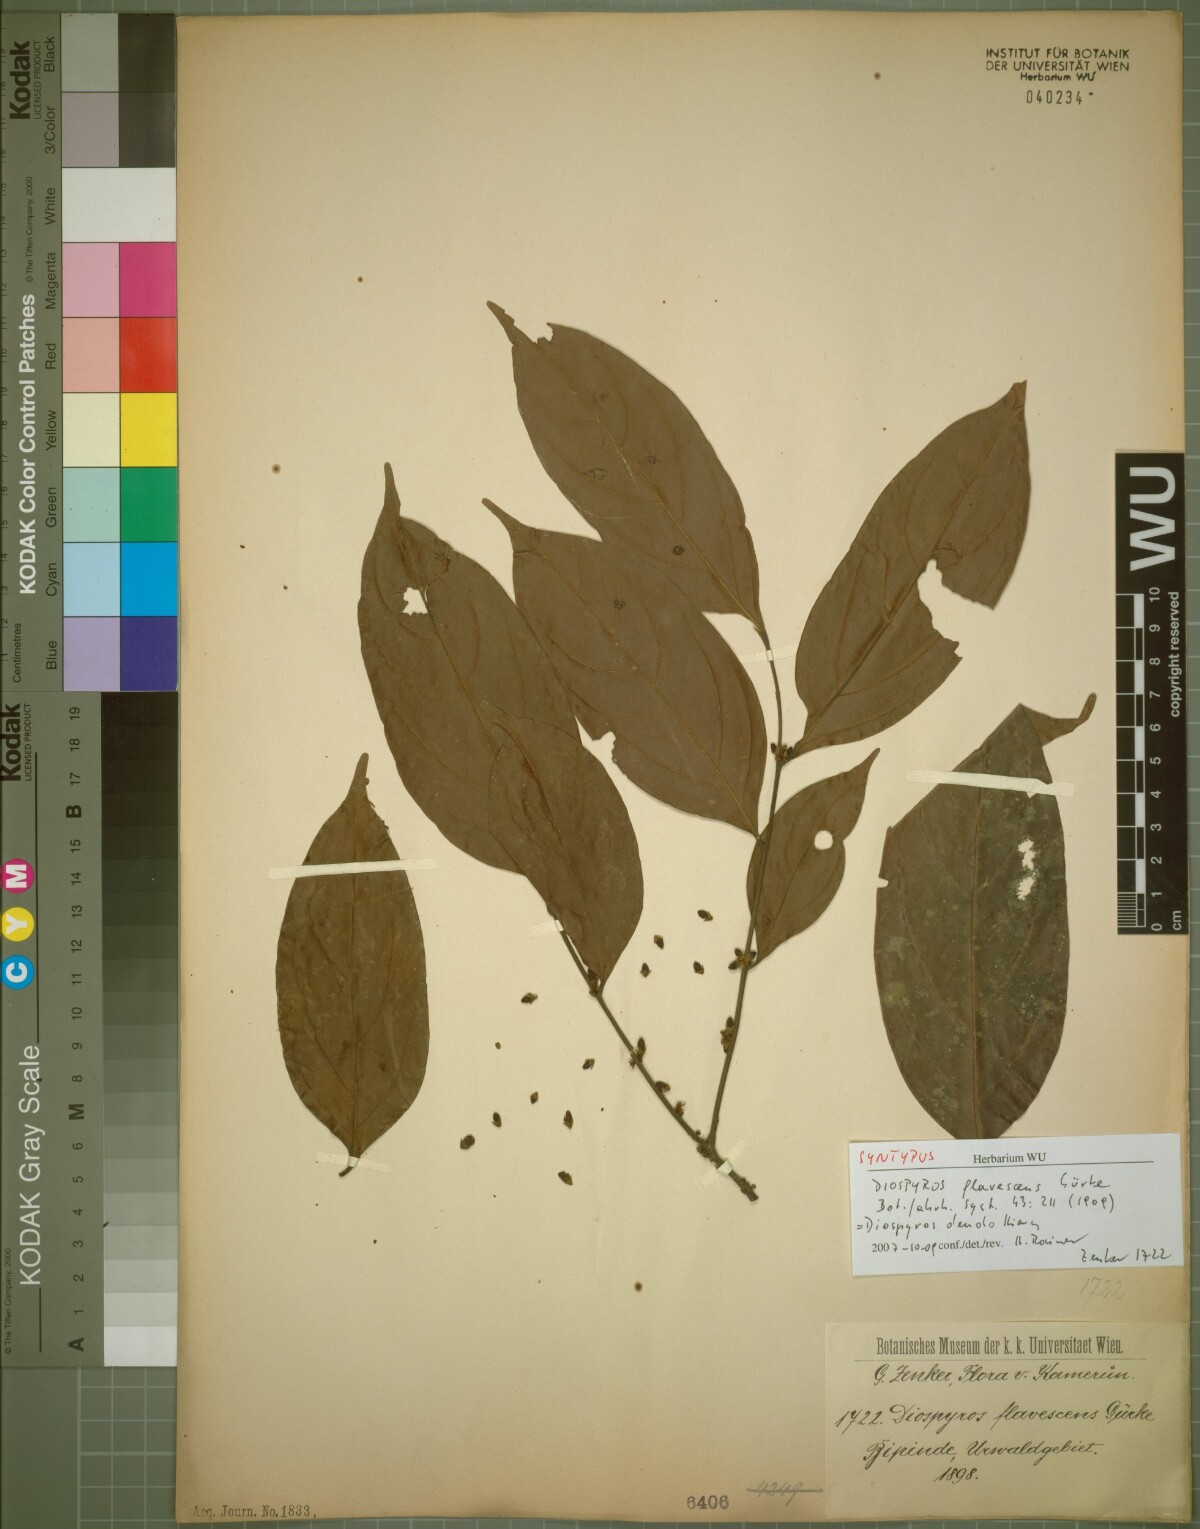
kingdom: Plantae
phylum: Tracheophyta
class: Magnoliopsida
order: Ericales
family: Ebenaceae
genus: Diospyros
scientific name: Diospyros dendo
